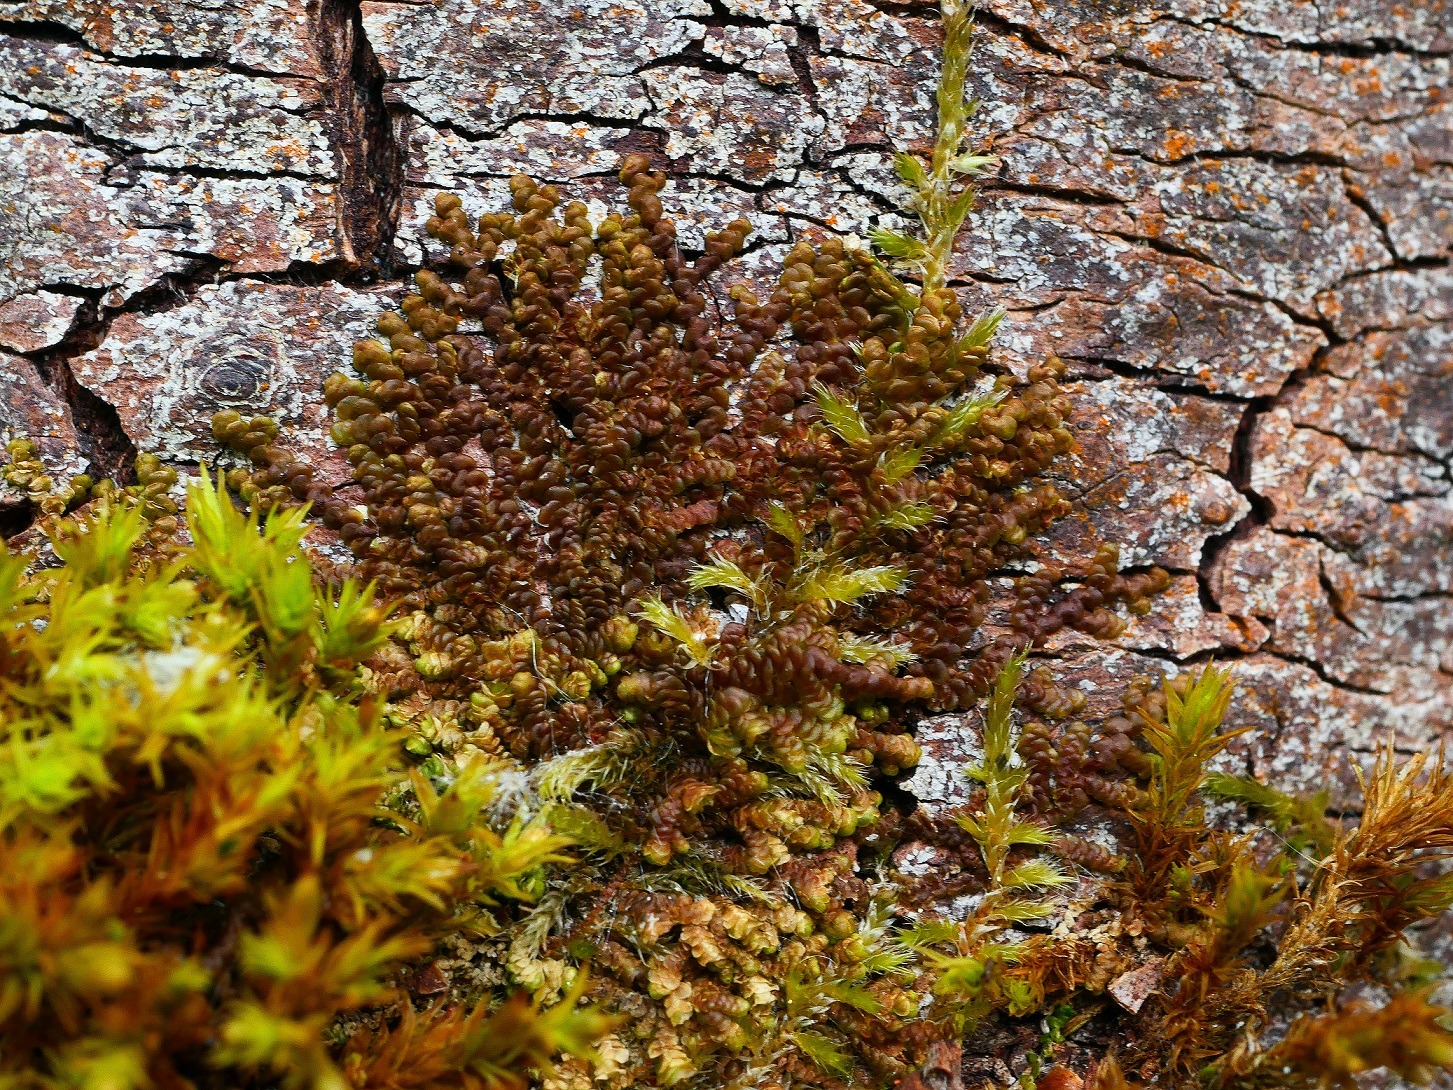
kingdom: Plantae
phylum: Marchantiophyta
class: Jungermanniopsida
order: Porellales
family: Frullaniaceae
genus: Frullania
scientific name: Frullania dilatata
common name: Mat bronzemos
